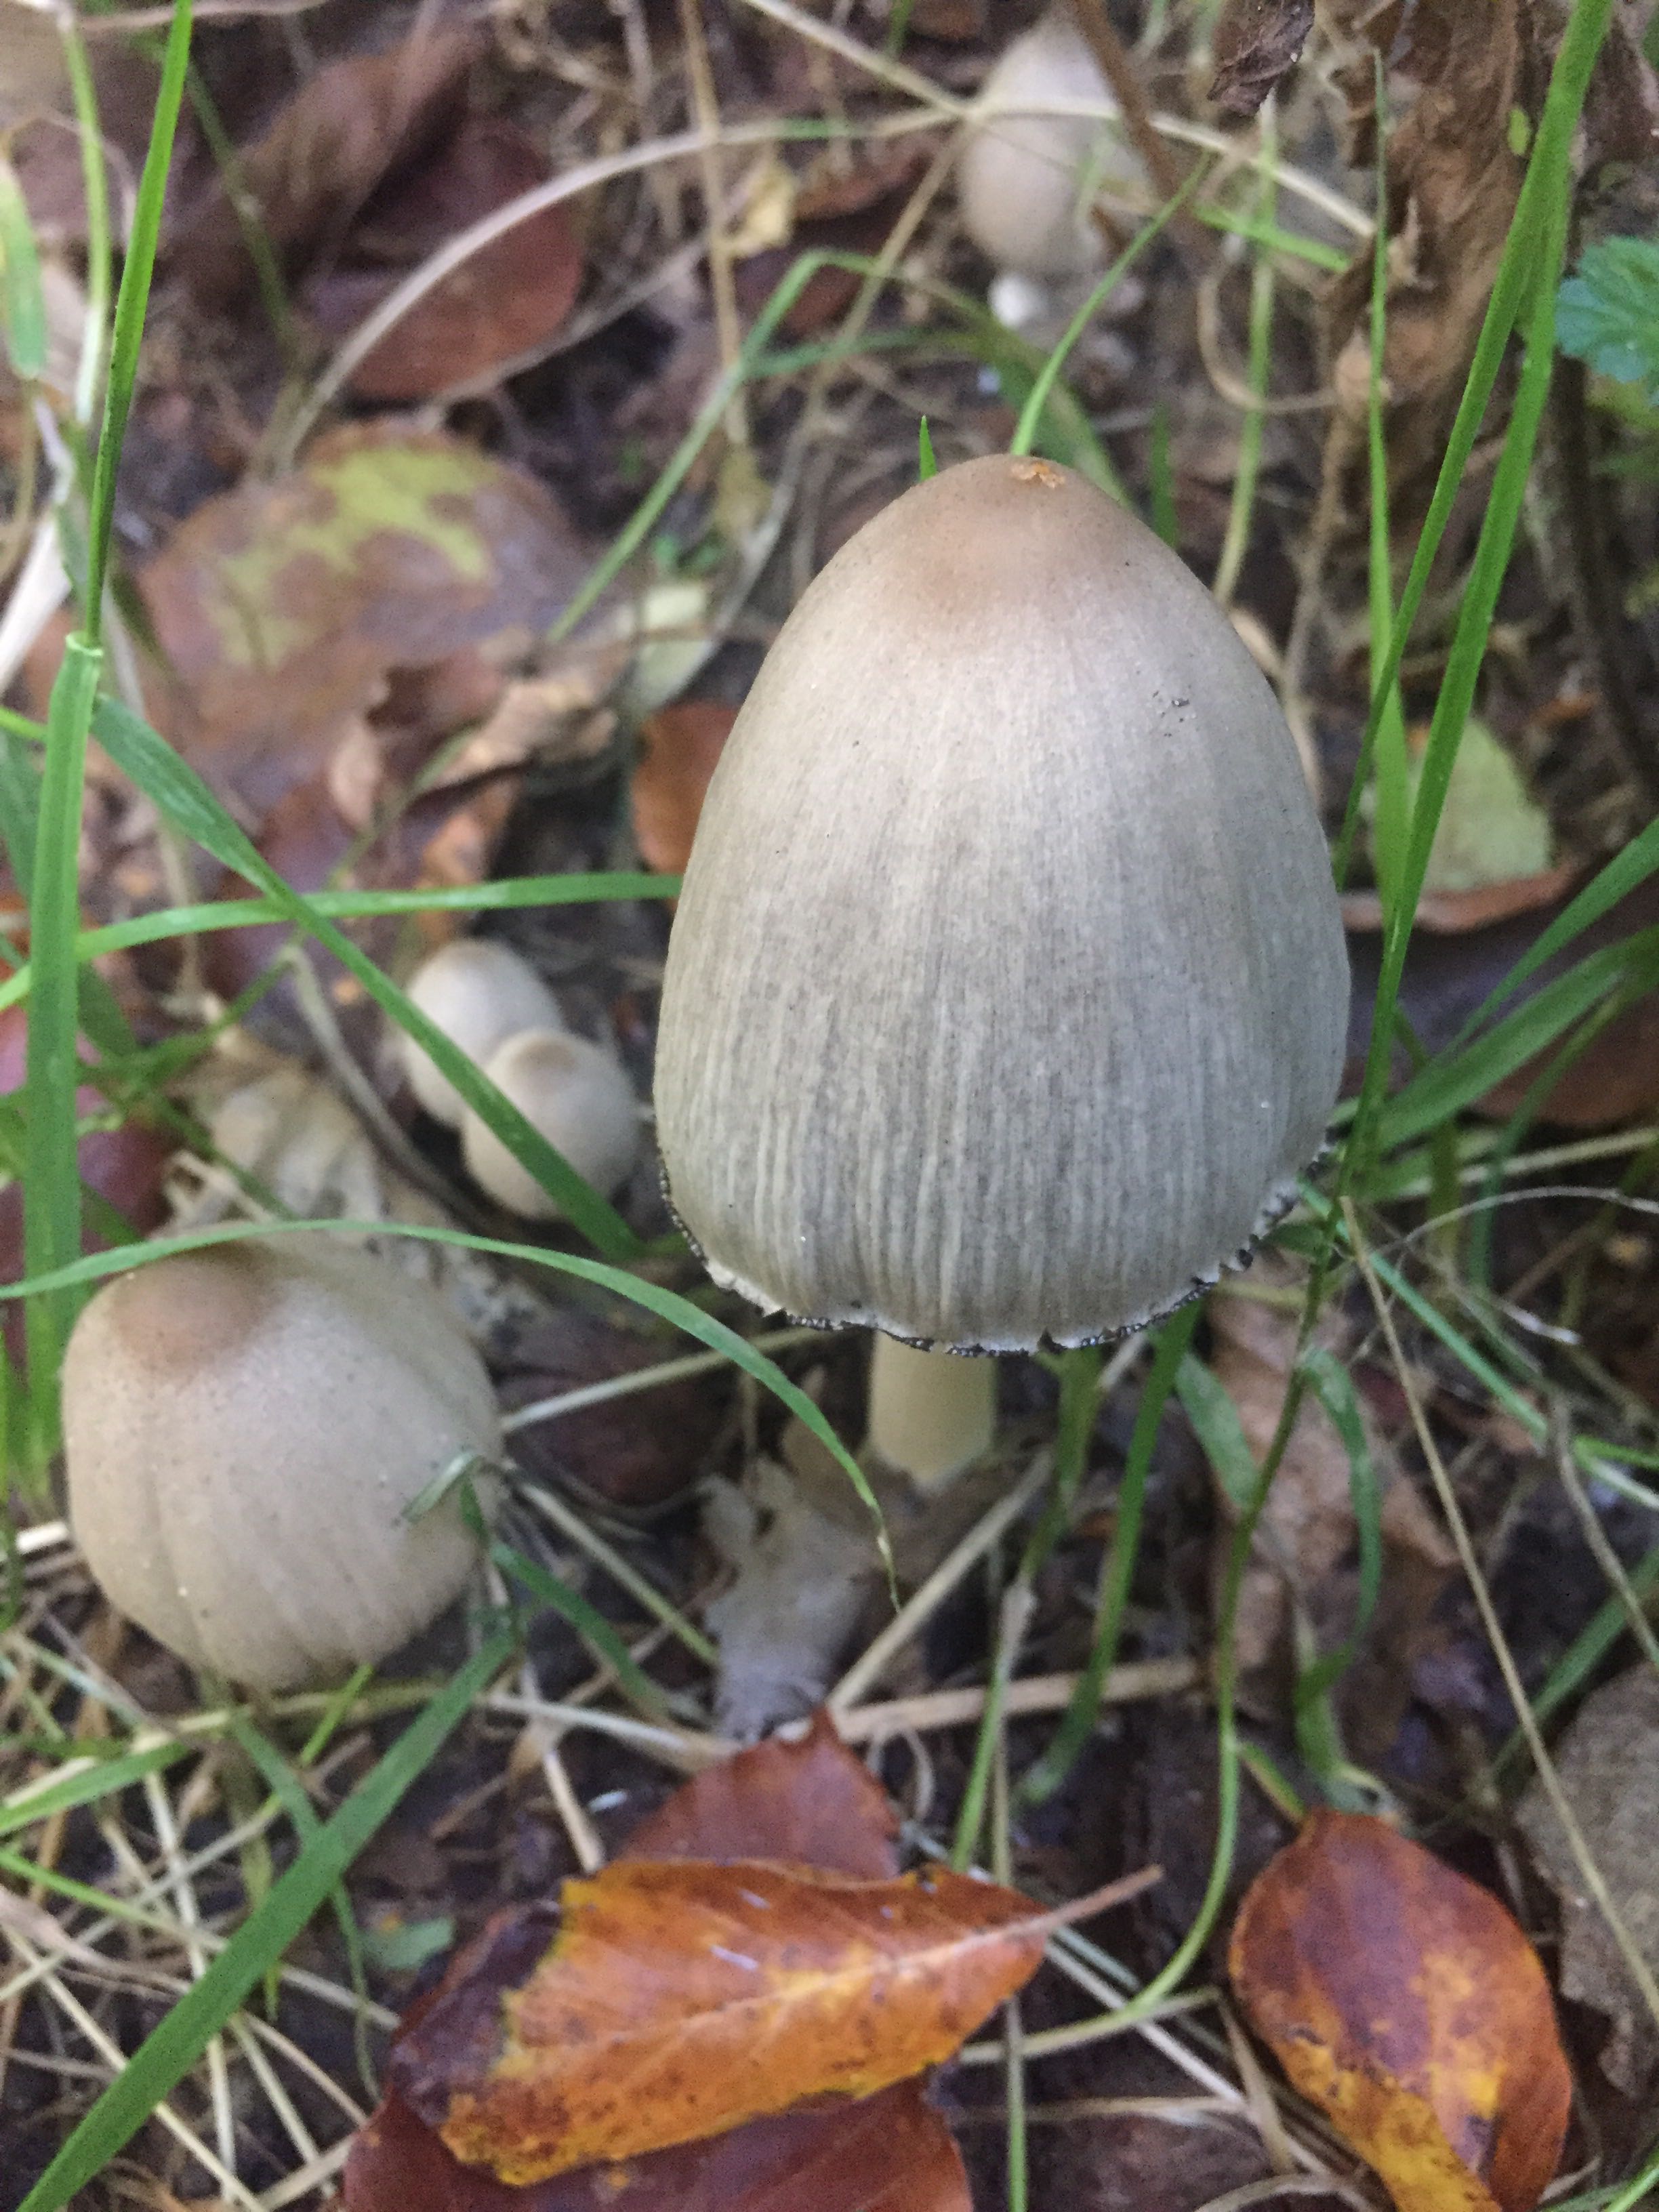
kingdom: Fungi
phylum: Basidiomycota
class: Agaricomycetes
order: Agaricales
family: Psathyrellaceae
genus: Coprinopsis
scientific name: Coprinopsis acuminata
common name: kegle-blækhat
